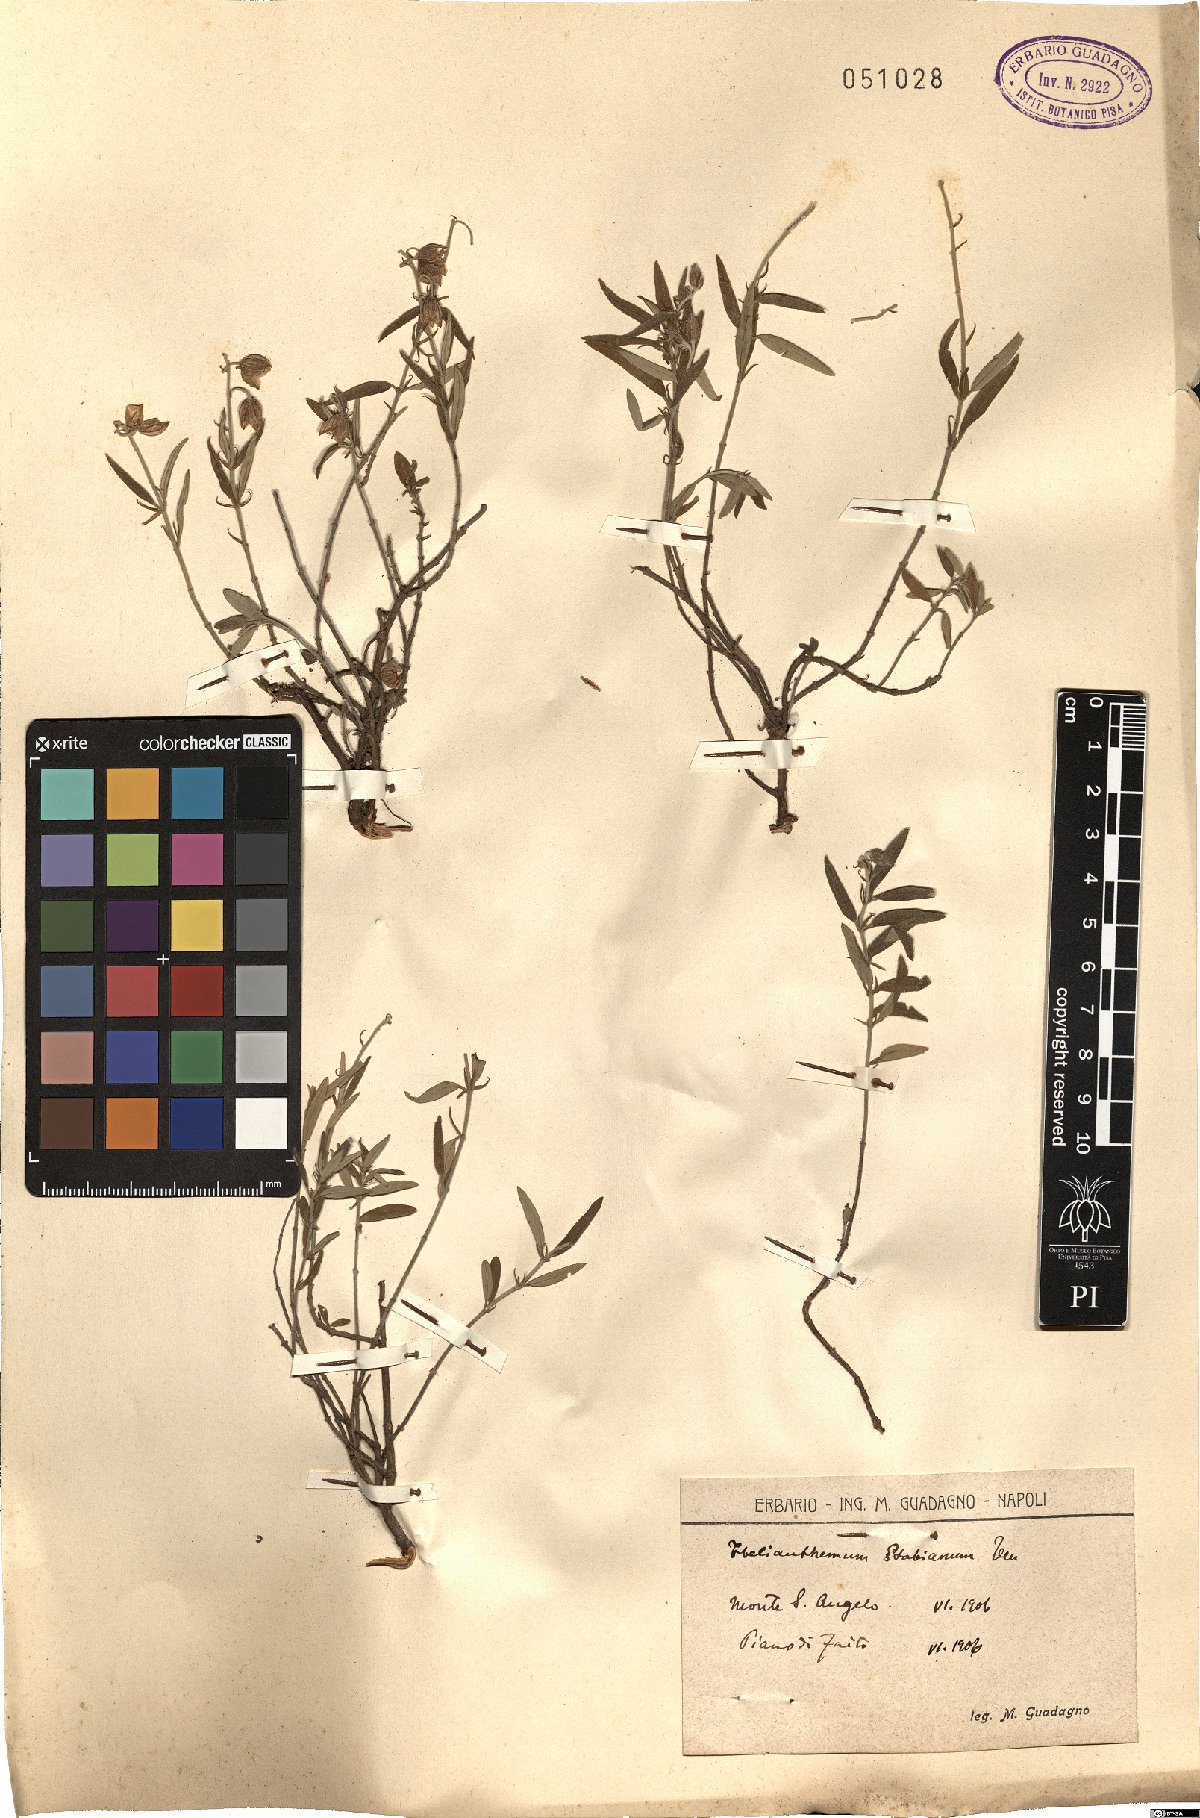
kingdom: Plantae
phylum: Tracheophyta
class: Magnoliopsida
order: Malvales
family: Cistaceae
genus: Helianthemum
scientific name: Helianthemum croceum
